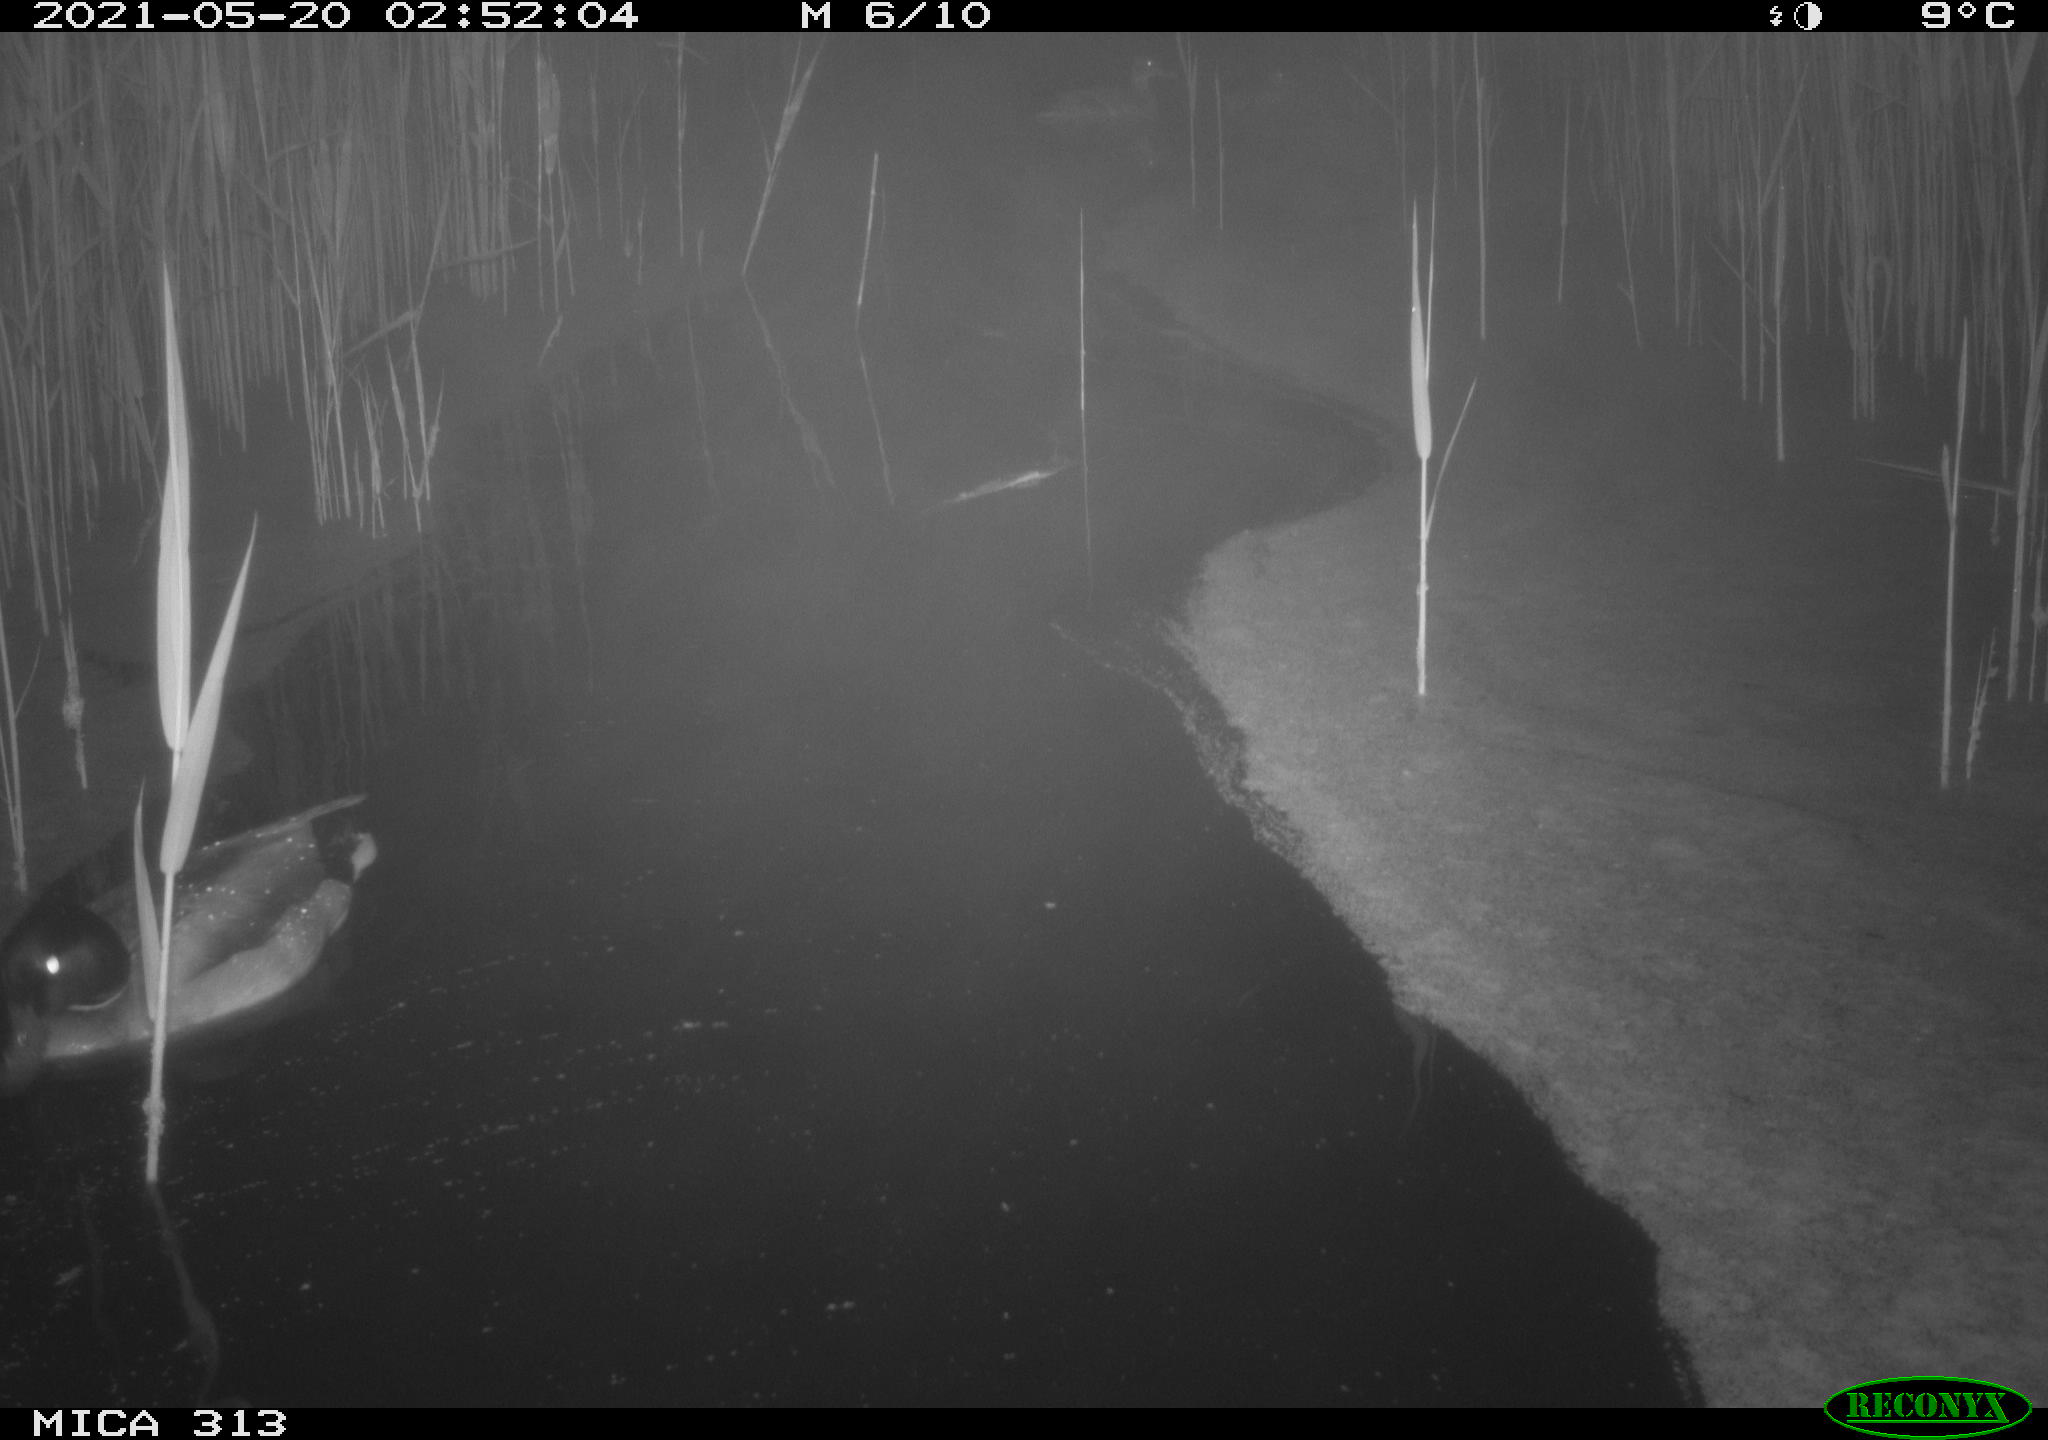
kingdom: Animalia
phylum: Chordata
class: Aves
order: Anseriformes
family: Anatidae
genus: Mareca
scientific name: Mareca strepera
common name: Gadwall
